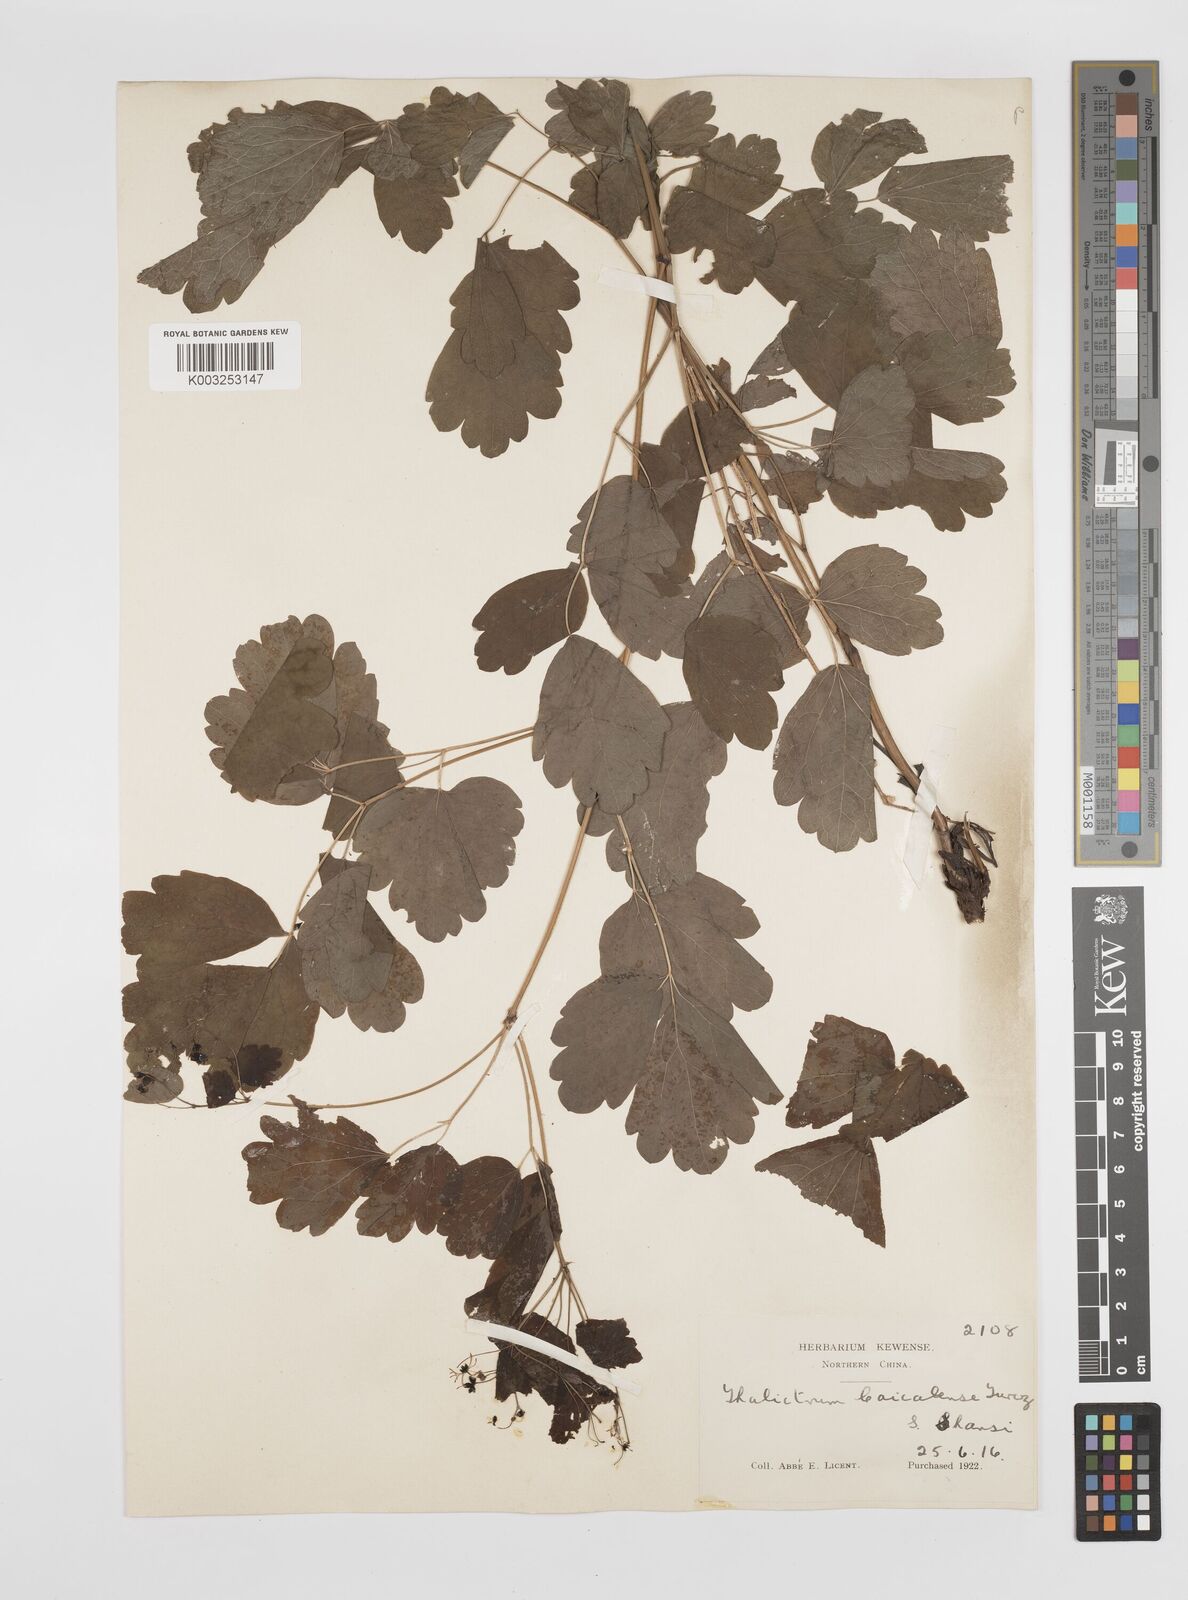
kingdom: Plantae
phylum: Tracheophyta
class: Magnoliopsida
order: Ranunculales
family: Ranunculaceae
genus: Thalictrum
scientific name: Thalictrum baicalense
